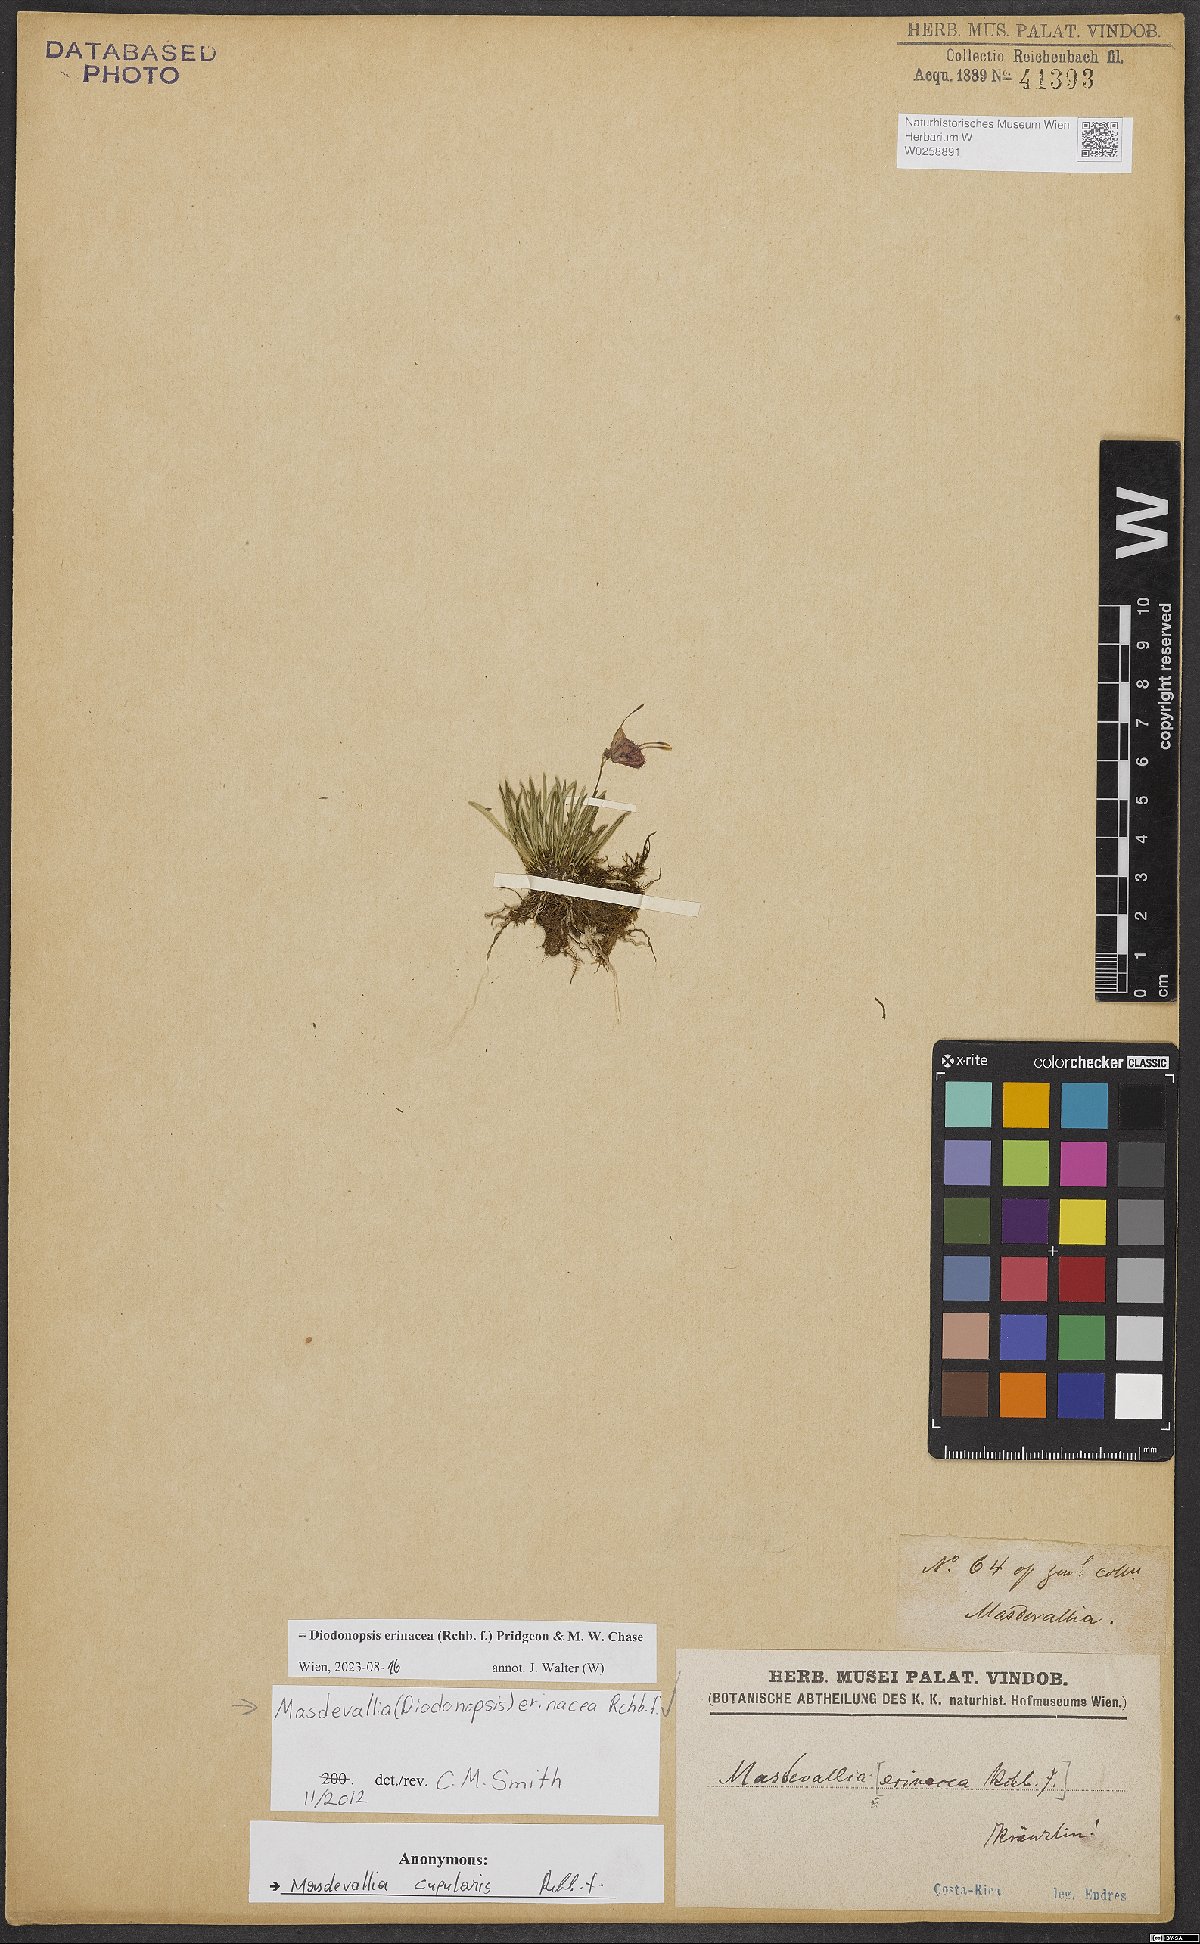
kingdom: Plantae
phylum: Tracheophyta
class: Liliopsida
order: Asparagales
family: Orchidaceae
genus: Diodonopsis
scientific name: Diodonopsis erinacea
